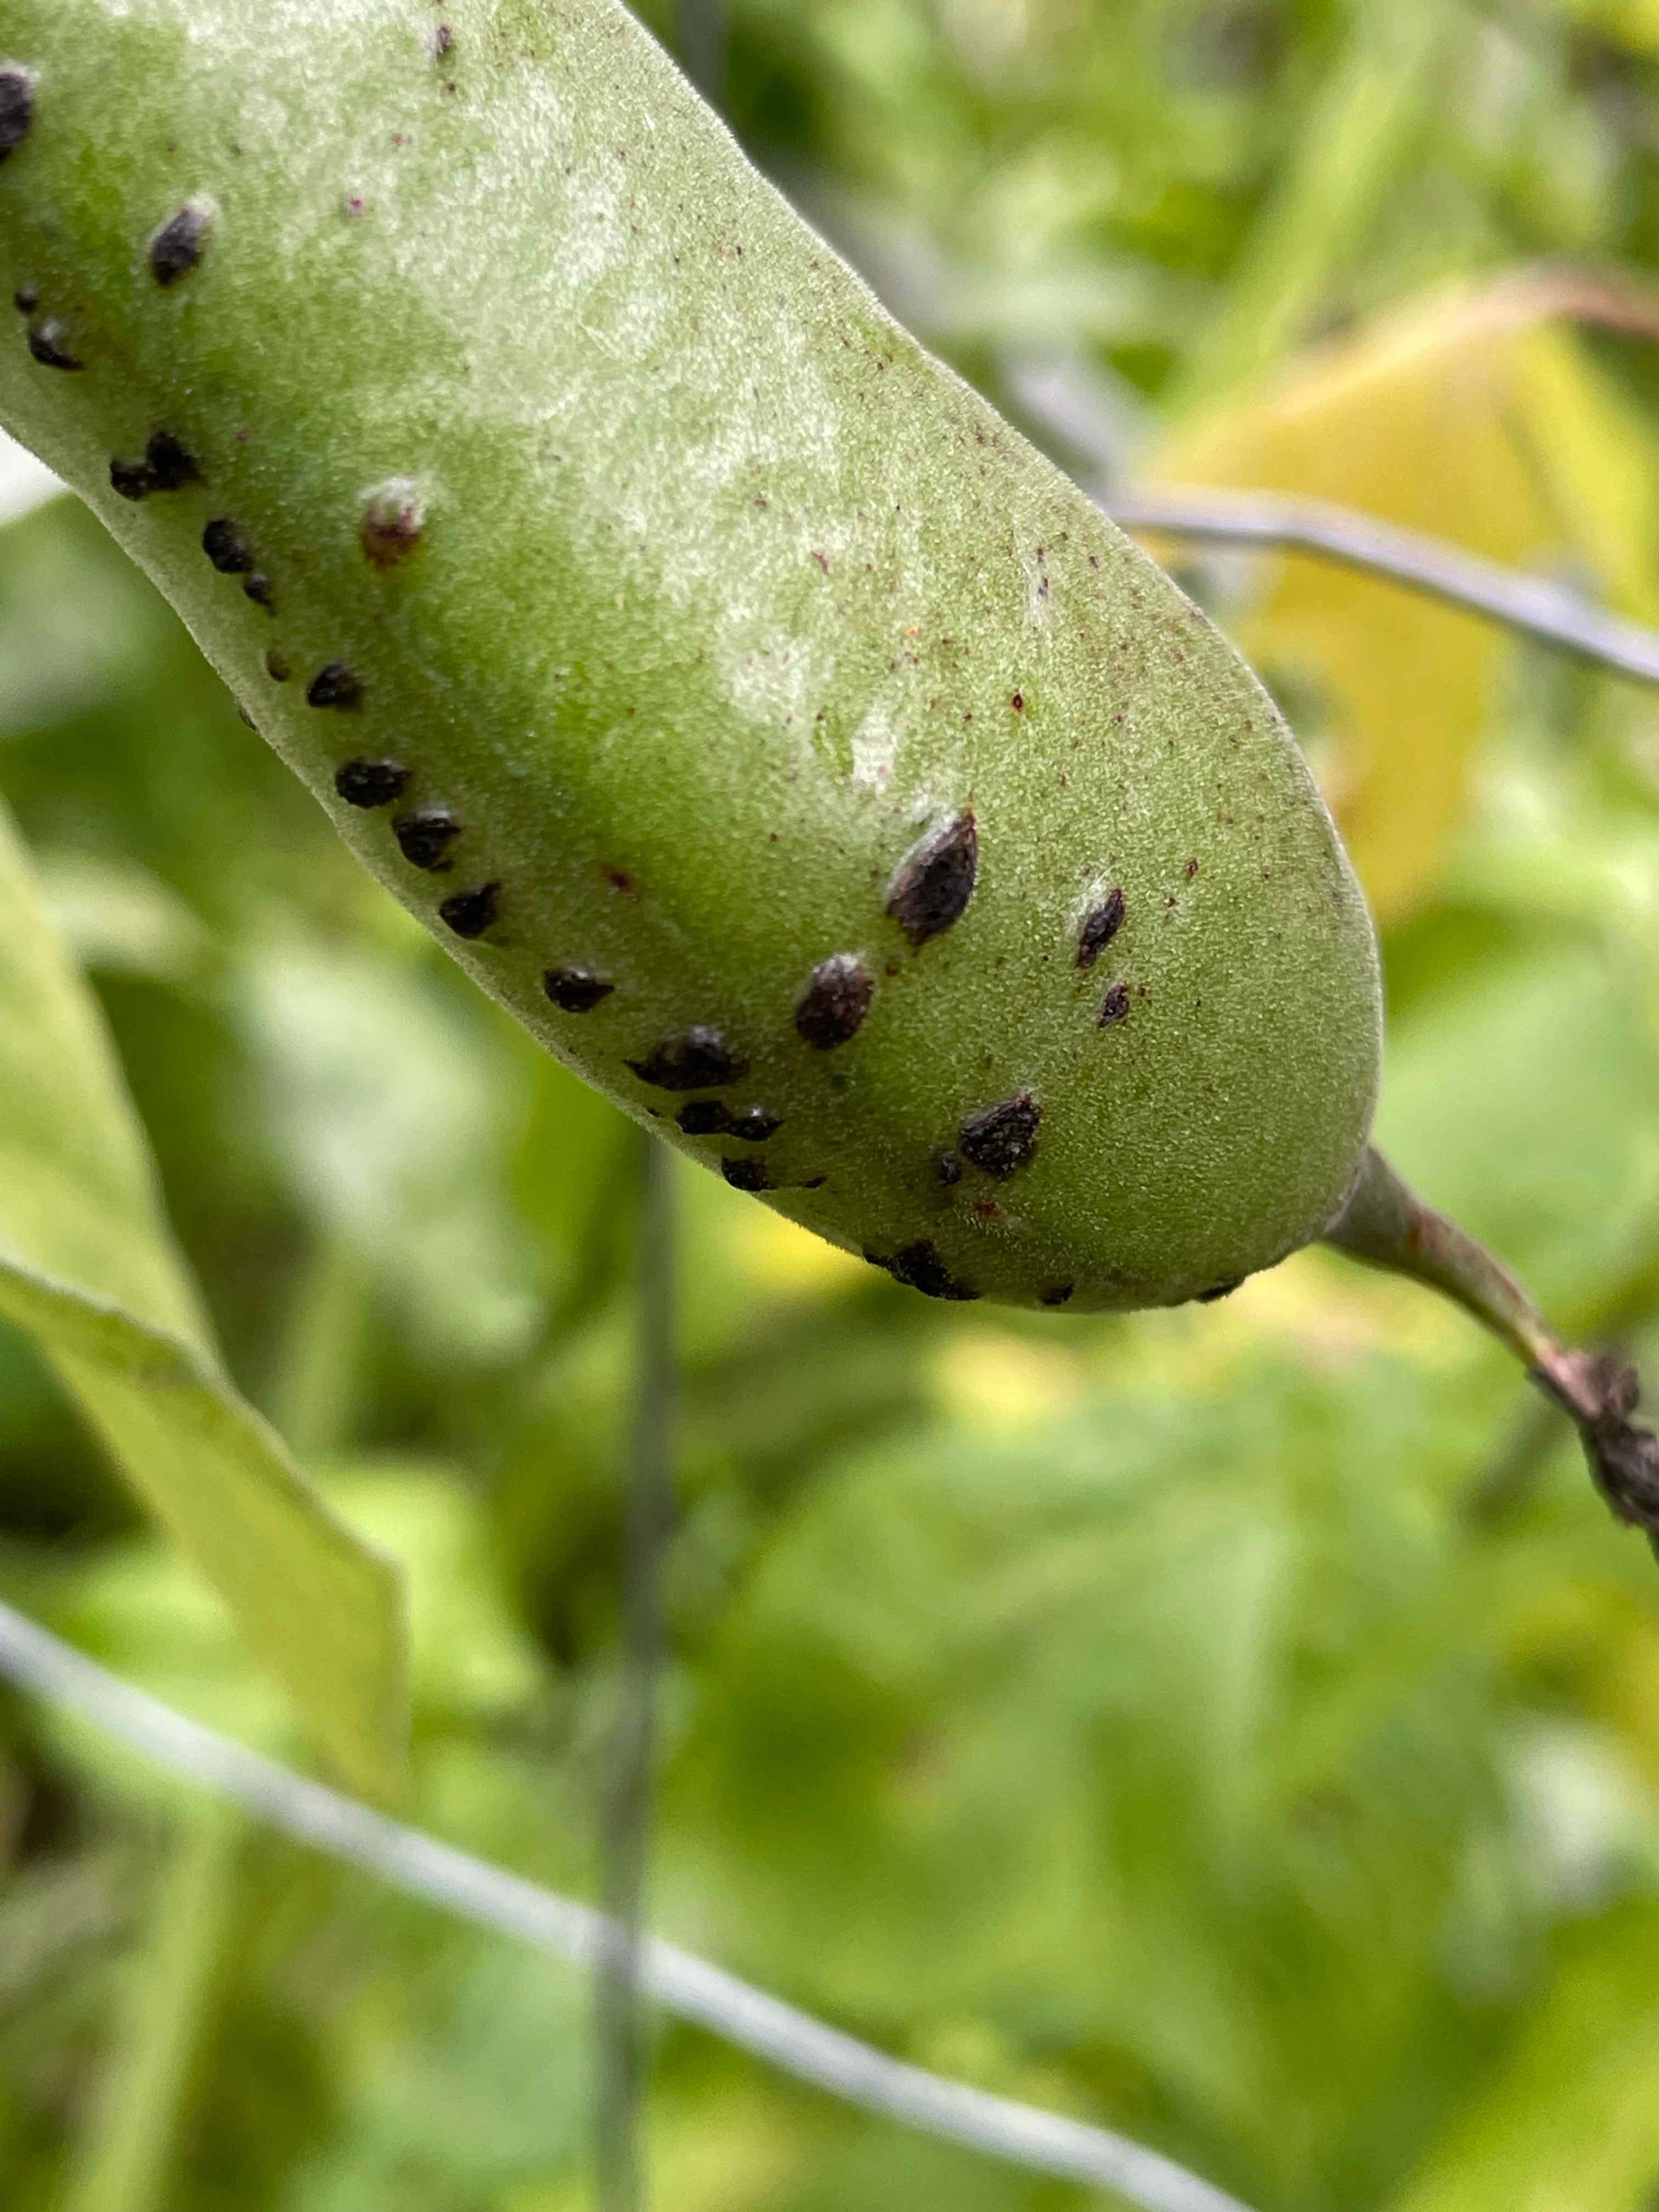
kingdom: Fungi
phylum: Ascomycota
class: Dothideomycetes
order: Pleosporales
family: Didymellaceae
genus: Didymella
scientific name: Didymella fabae
